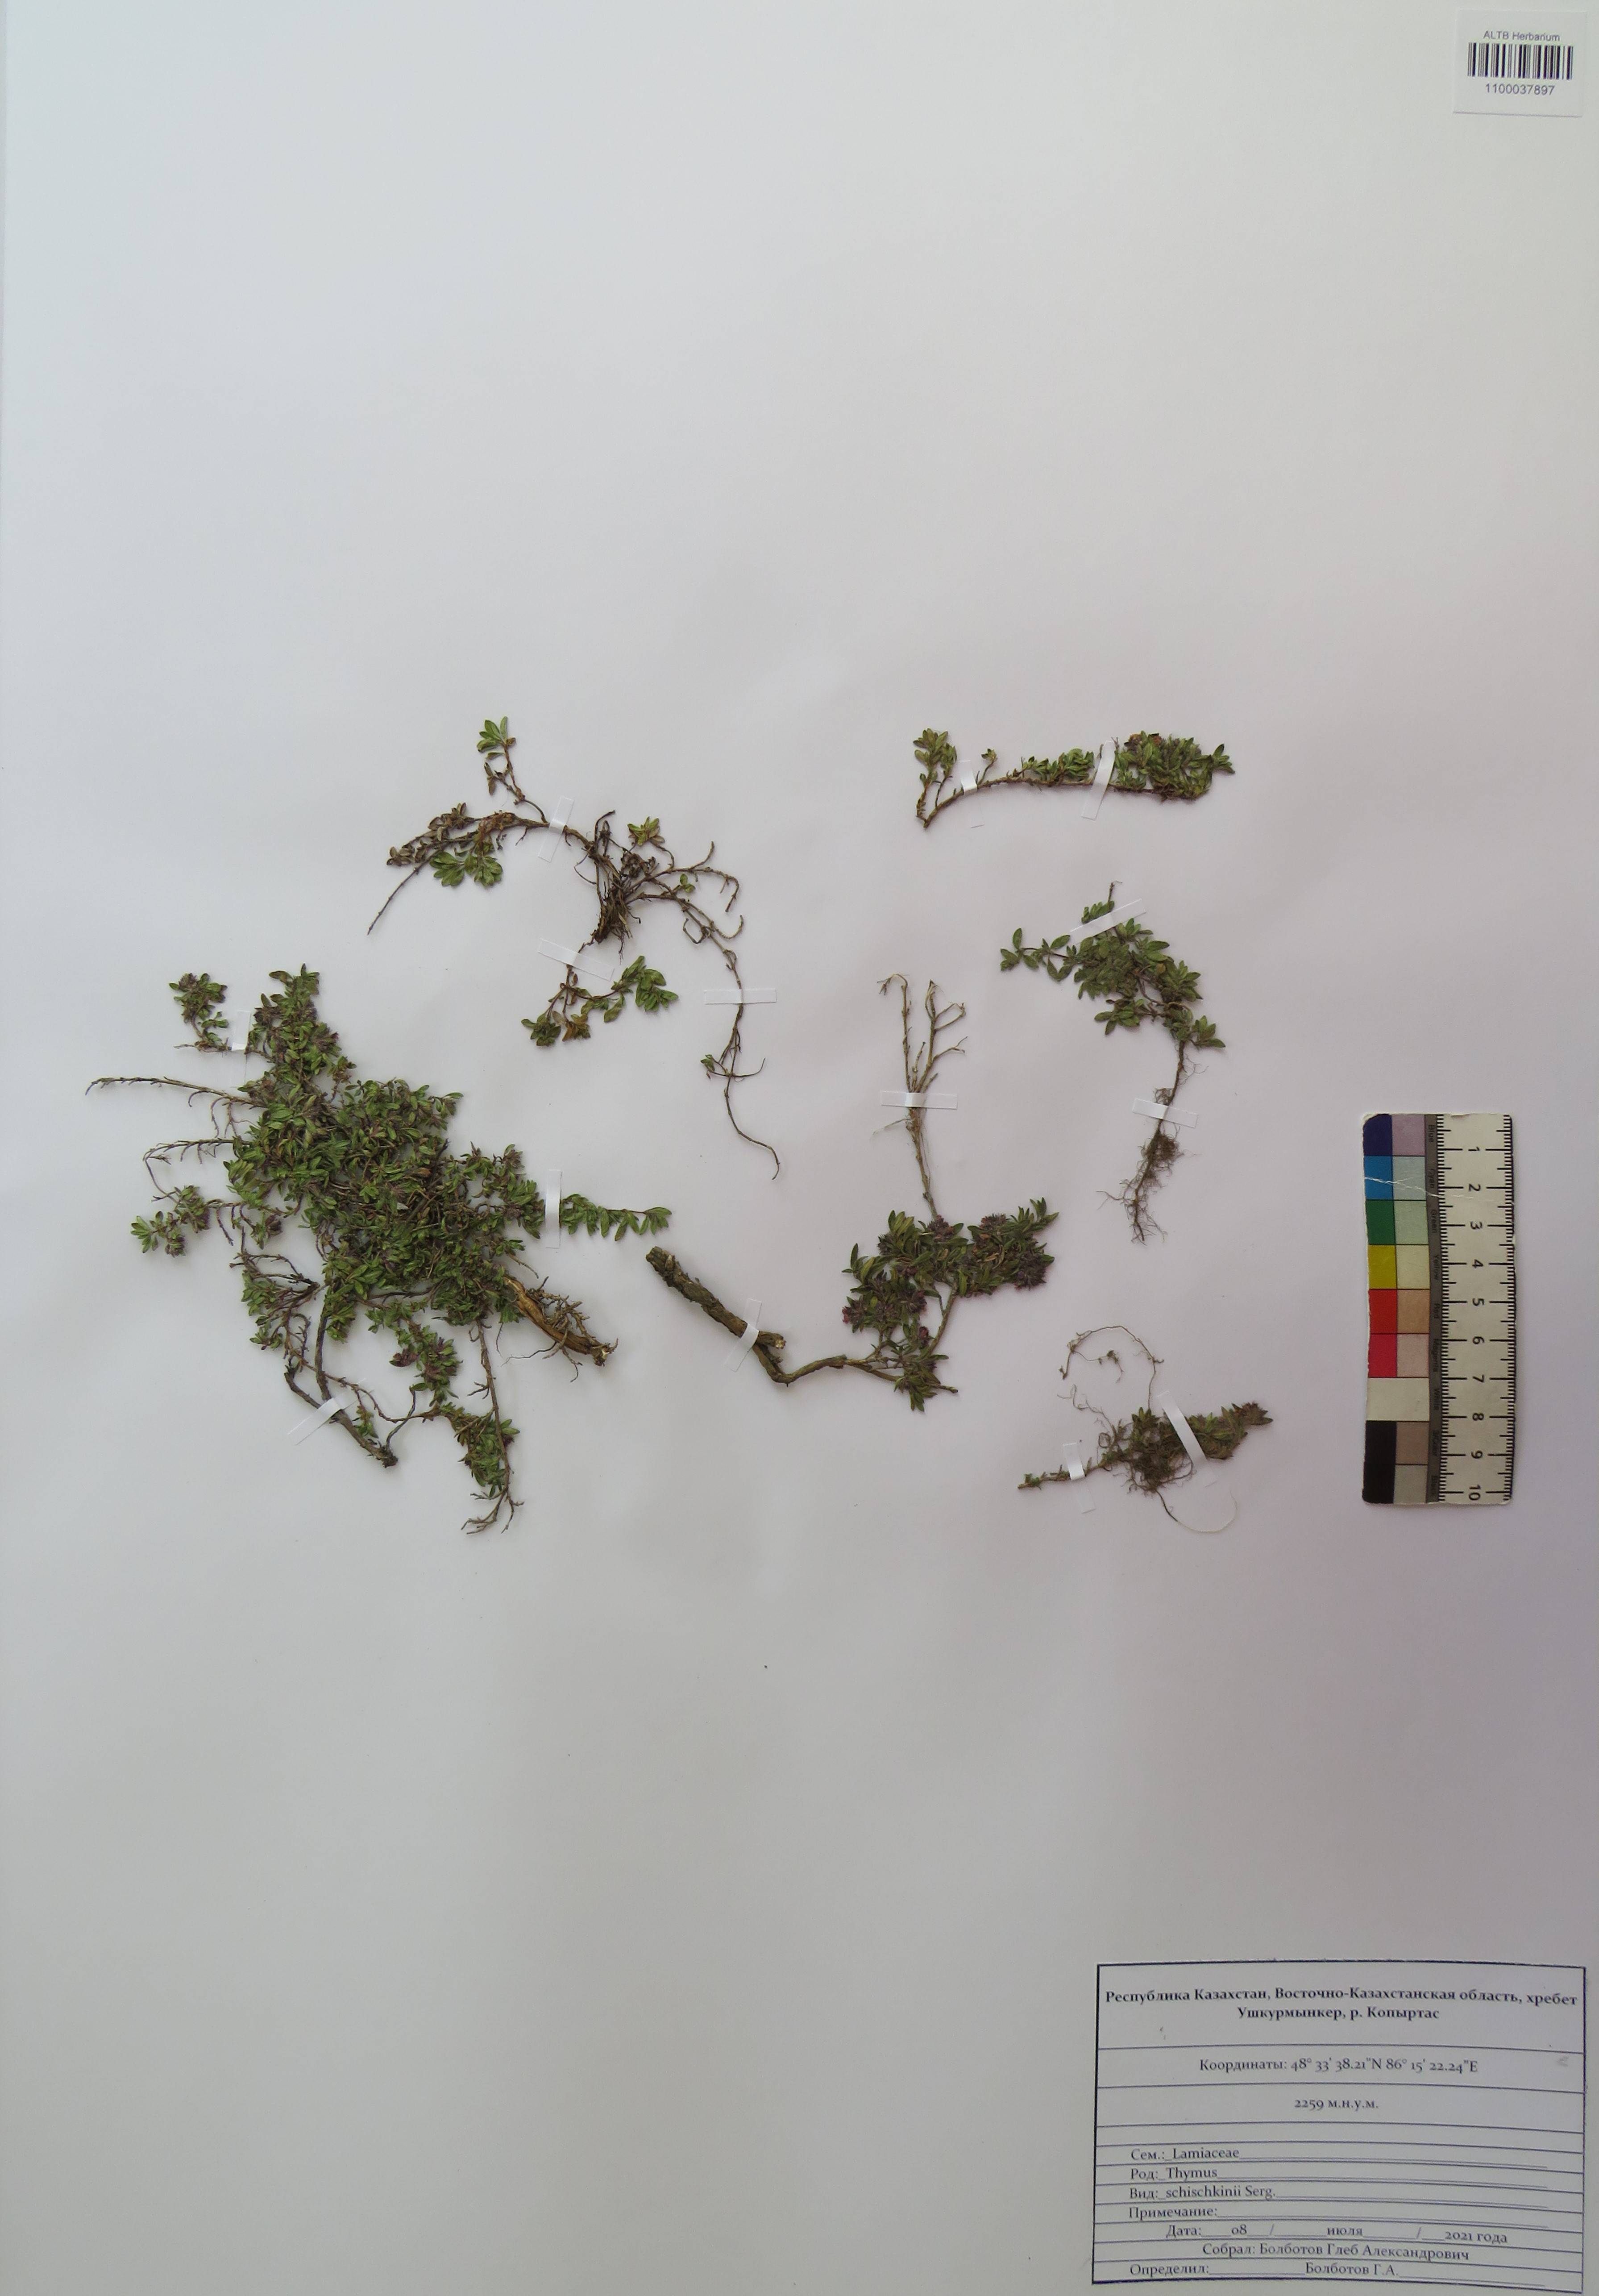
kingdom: Plantae
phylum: Tracheophyta
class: Magnoliopsida
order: Lamiales
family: Lamiaceae
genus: Thymus
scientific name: Thymus schischkinii
